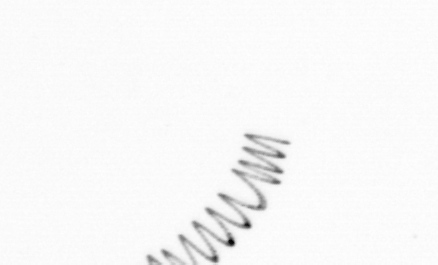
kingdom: Chromista
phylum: Ochrophyta
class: Bacillariophyceae
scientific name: Bacillariophyceae
